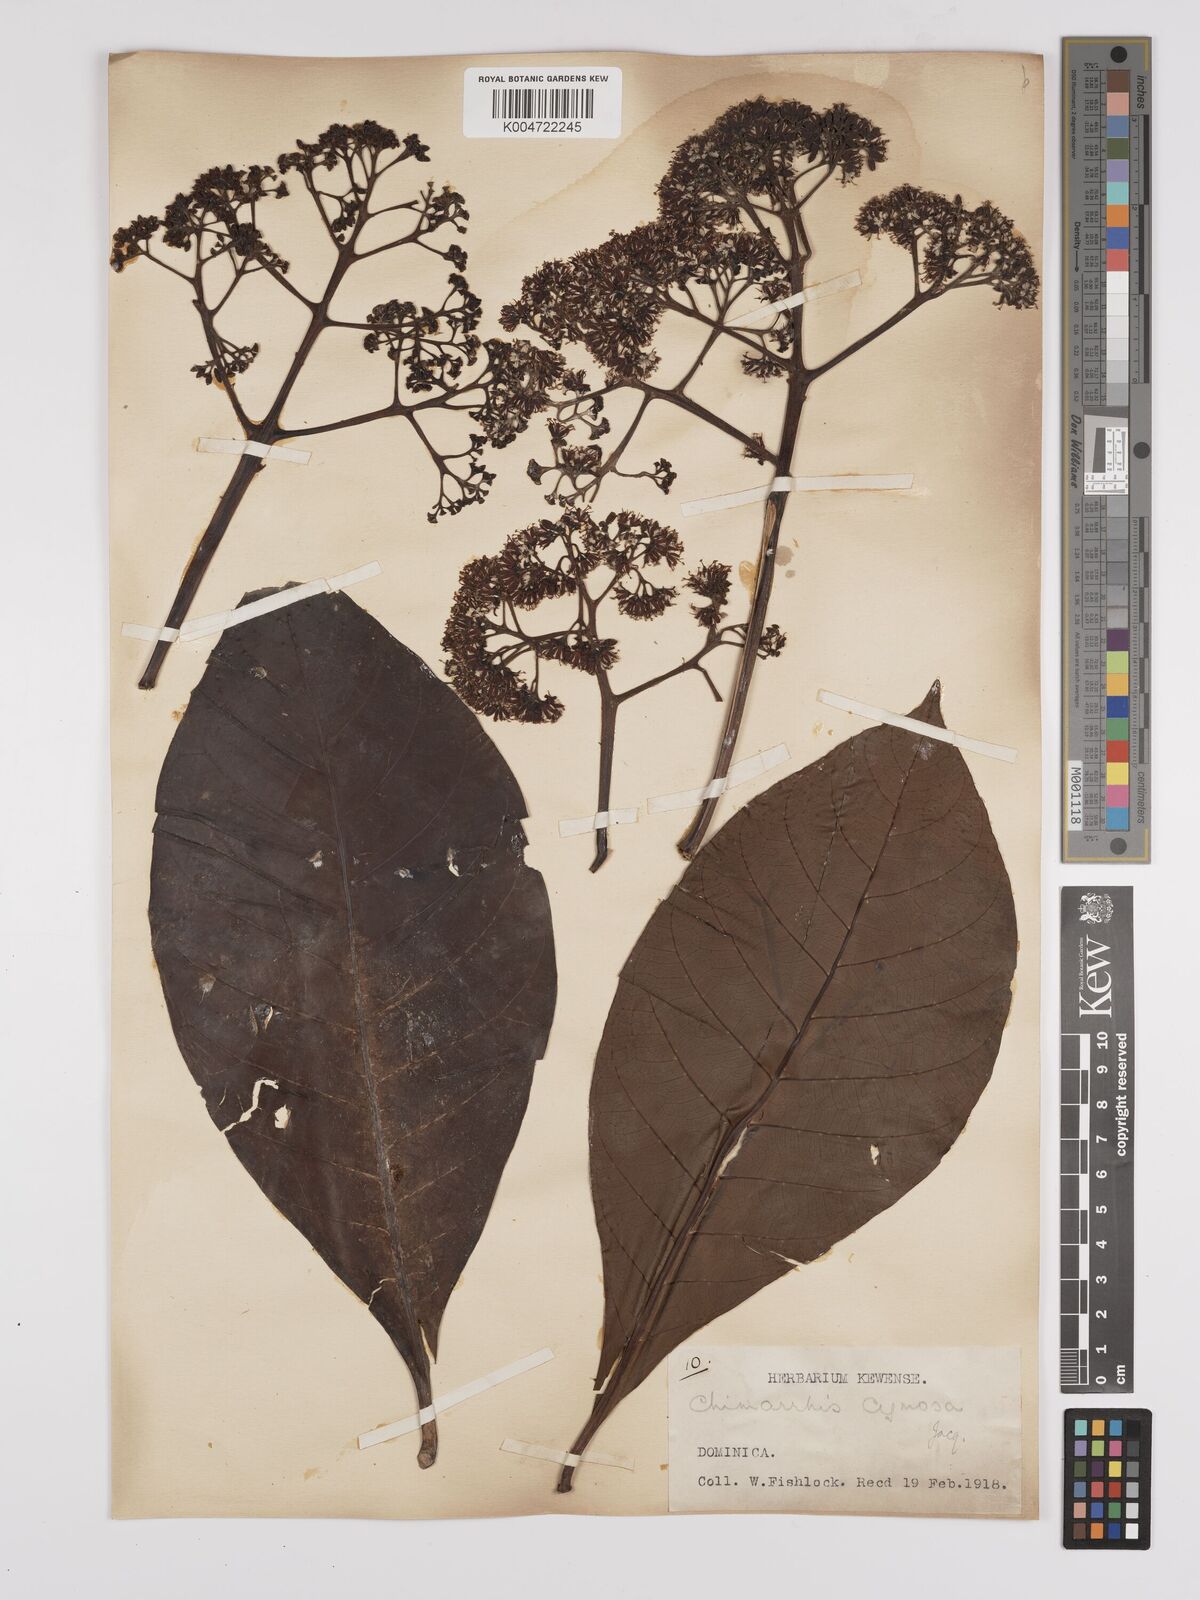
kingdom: Plantae
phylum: Tracheophyta
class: Magnoliopsida
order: Gentianales
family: Rubiaceae
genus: Chimarrhis
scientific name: Chimarrhis cymosa
